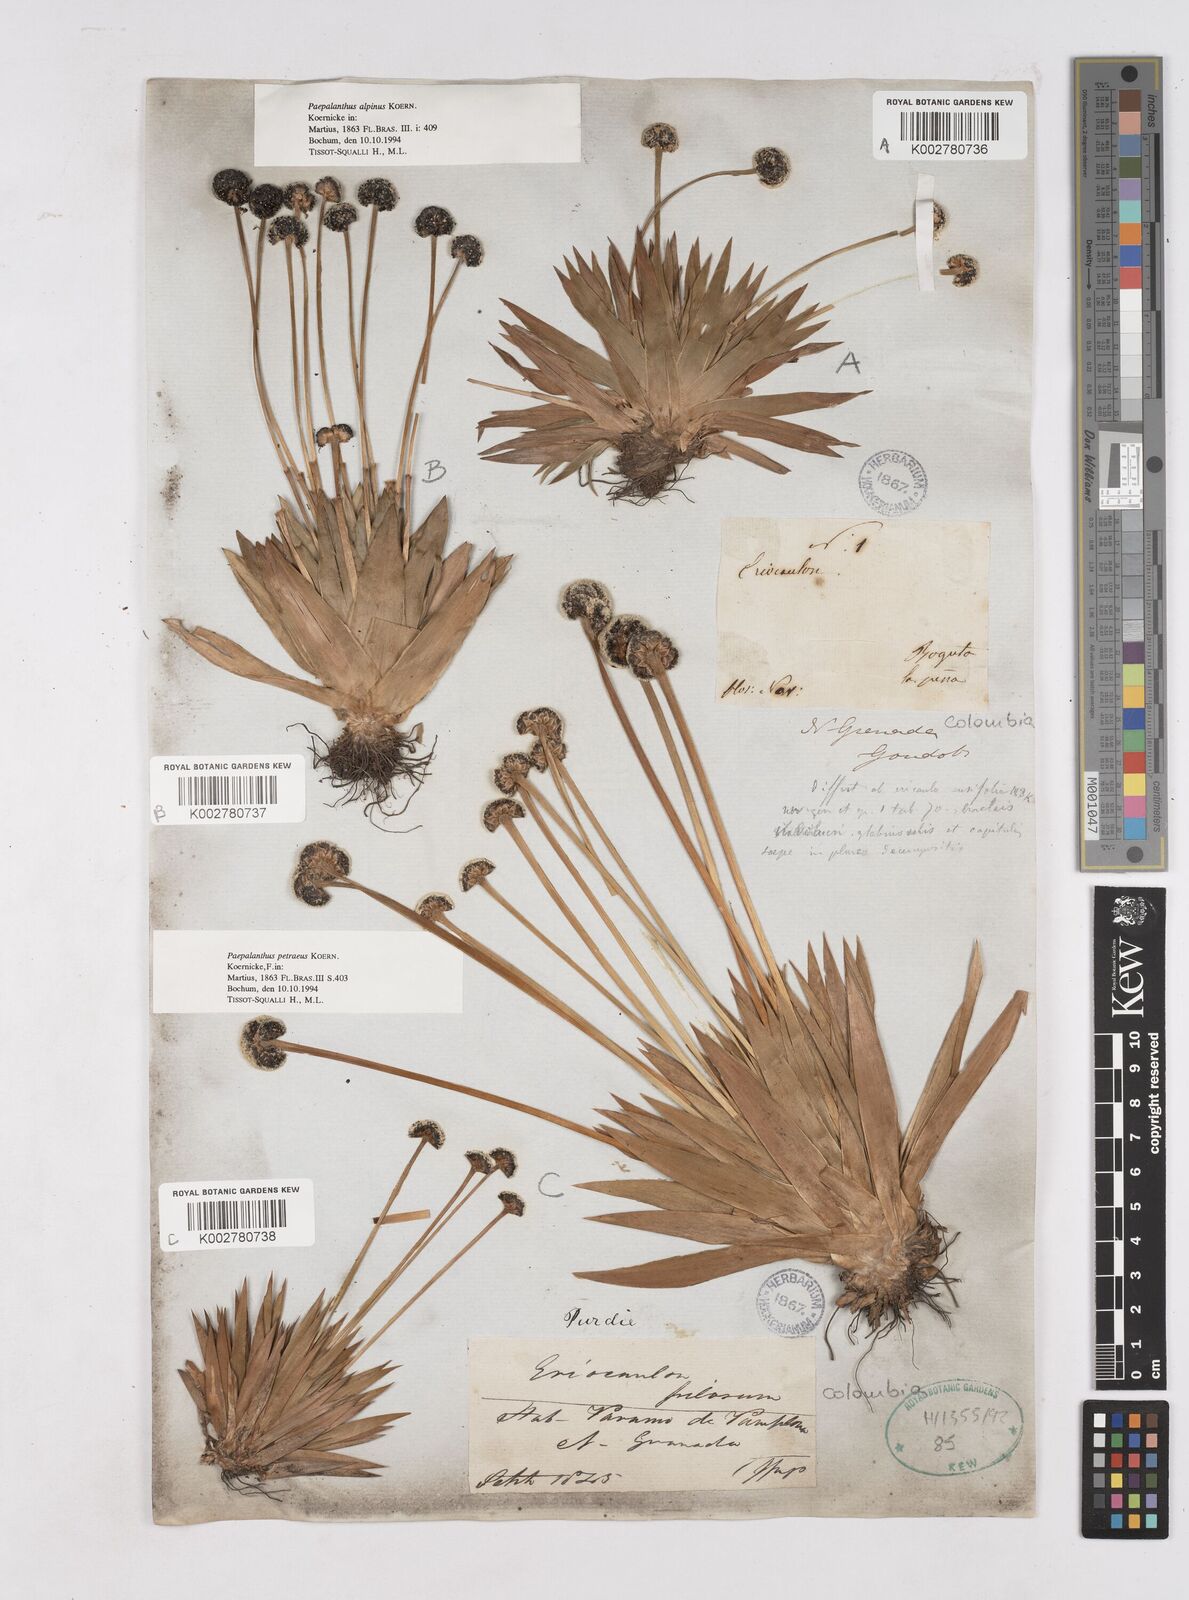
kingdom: Plantae
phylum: Tracheophyta
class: Liliopsida
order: Poales
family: Eriocaulaceae
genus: Paepalanthus
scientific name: Paepalanthus petraeus
